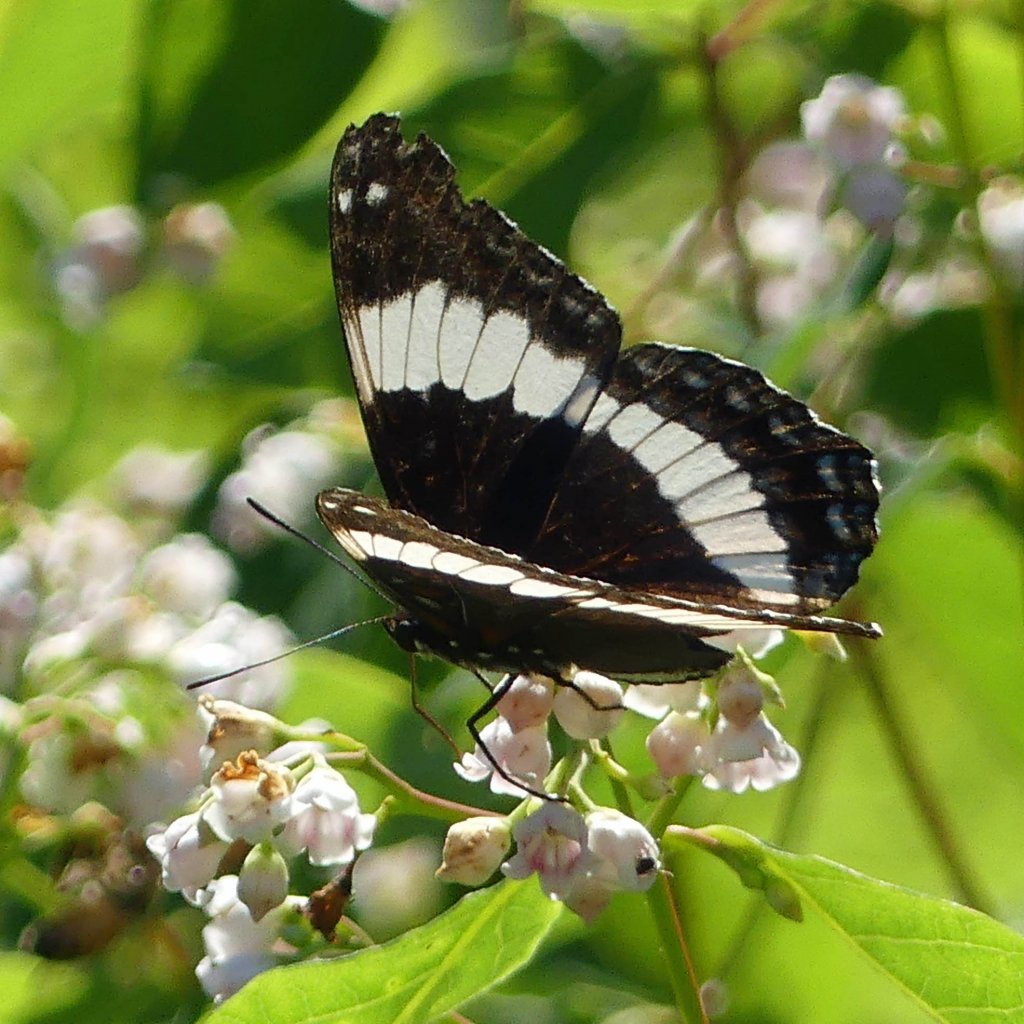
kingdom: Animalia
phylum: Arthropoda
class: Insecta
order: Lepidoptera
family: Nymphalidae
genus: Limenitis
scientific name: Limenitis arthemis
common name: Red-spotted Admiral
